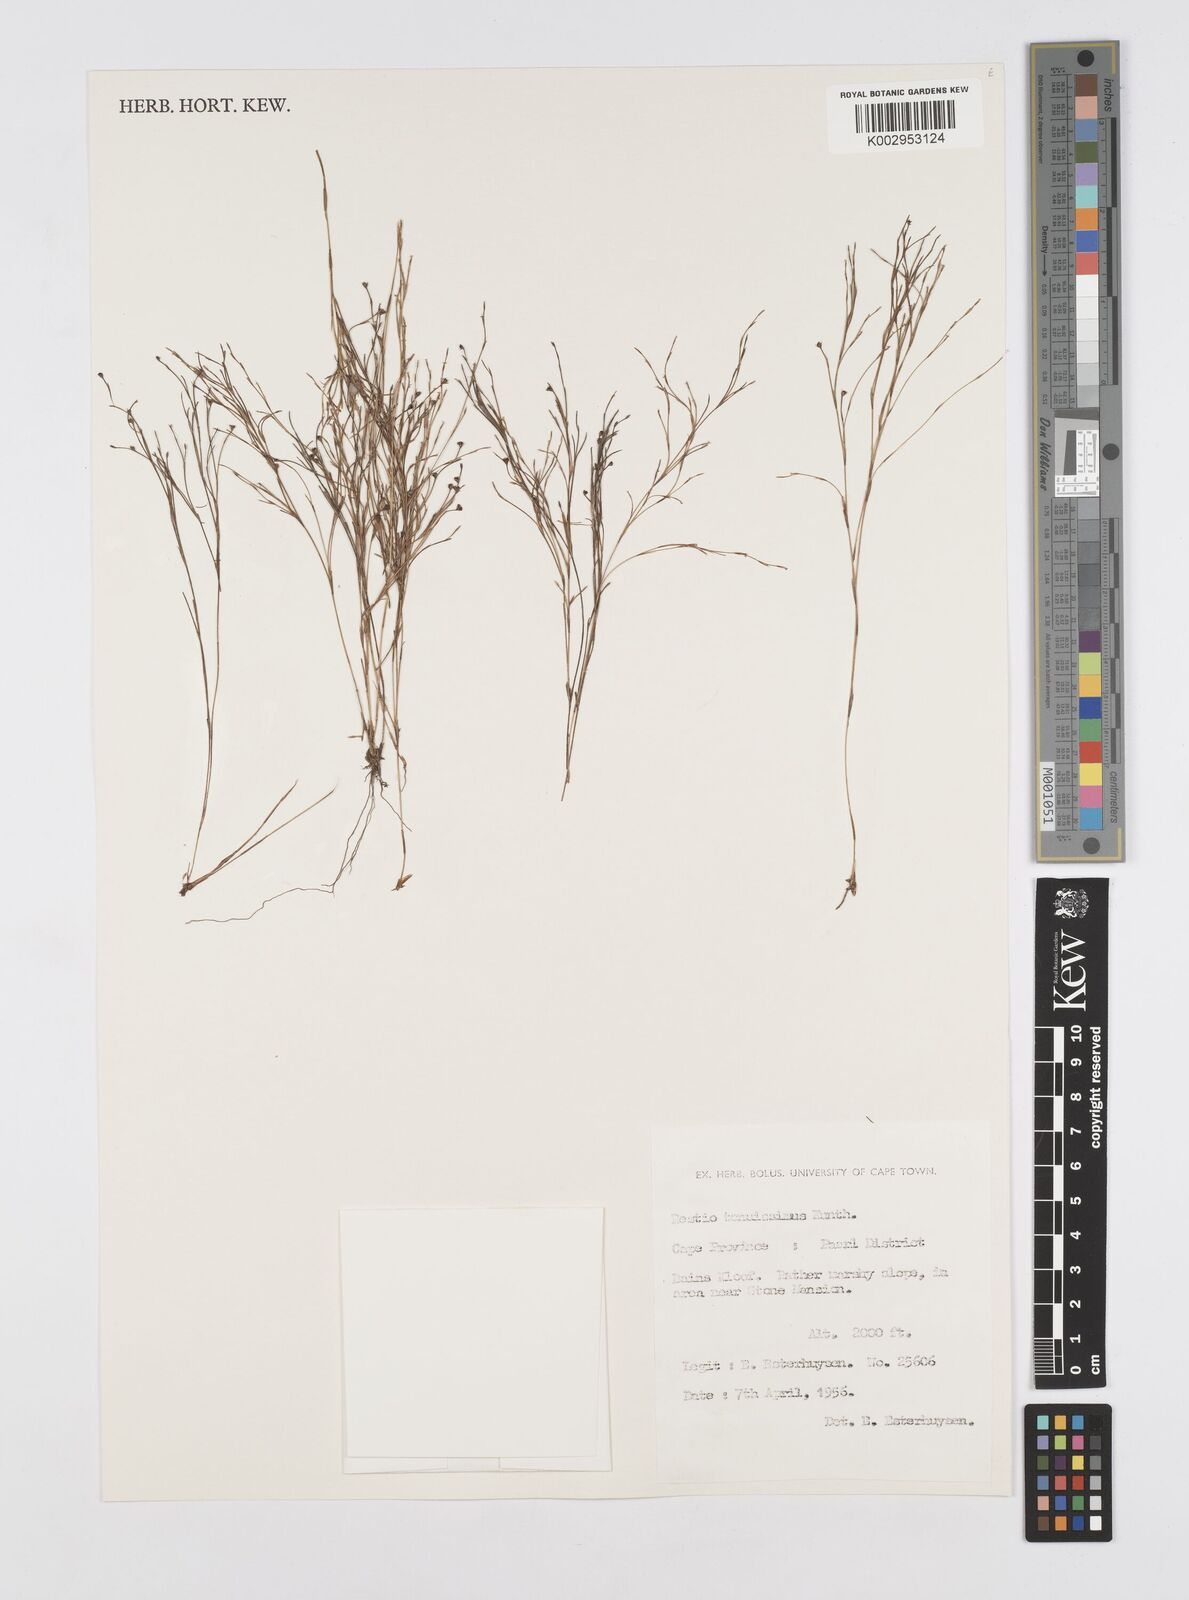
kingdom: Plantae
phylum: Tracheophyta
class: Liliopsida
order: Poales
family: Restionaceae
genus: Restio
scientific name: Restio tenuissimus
